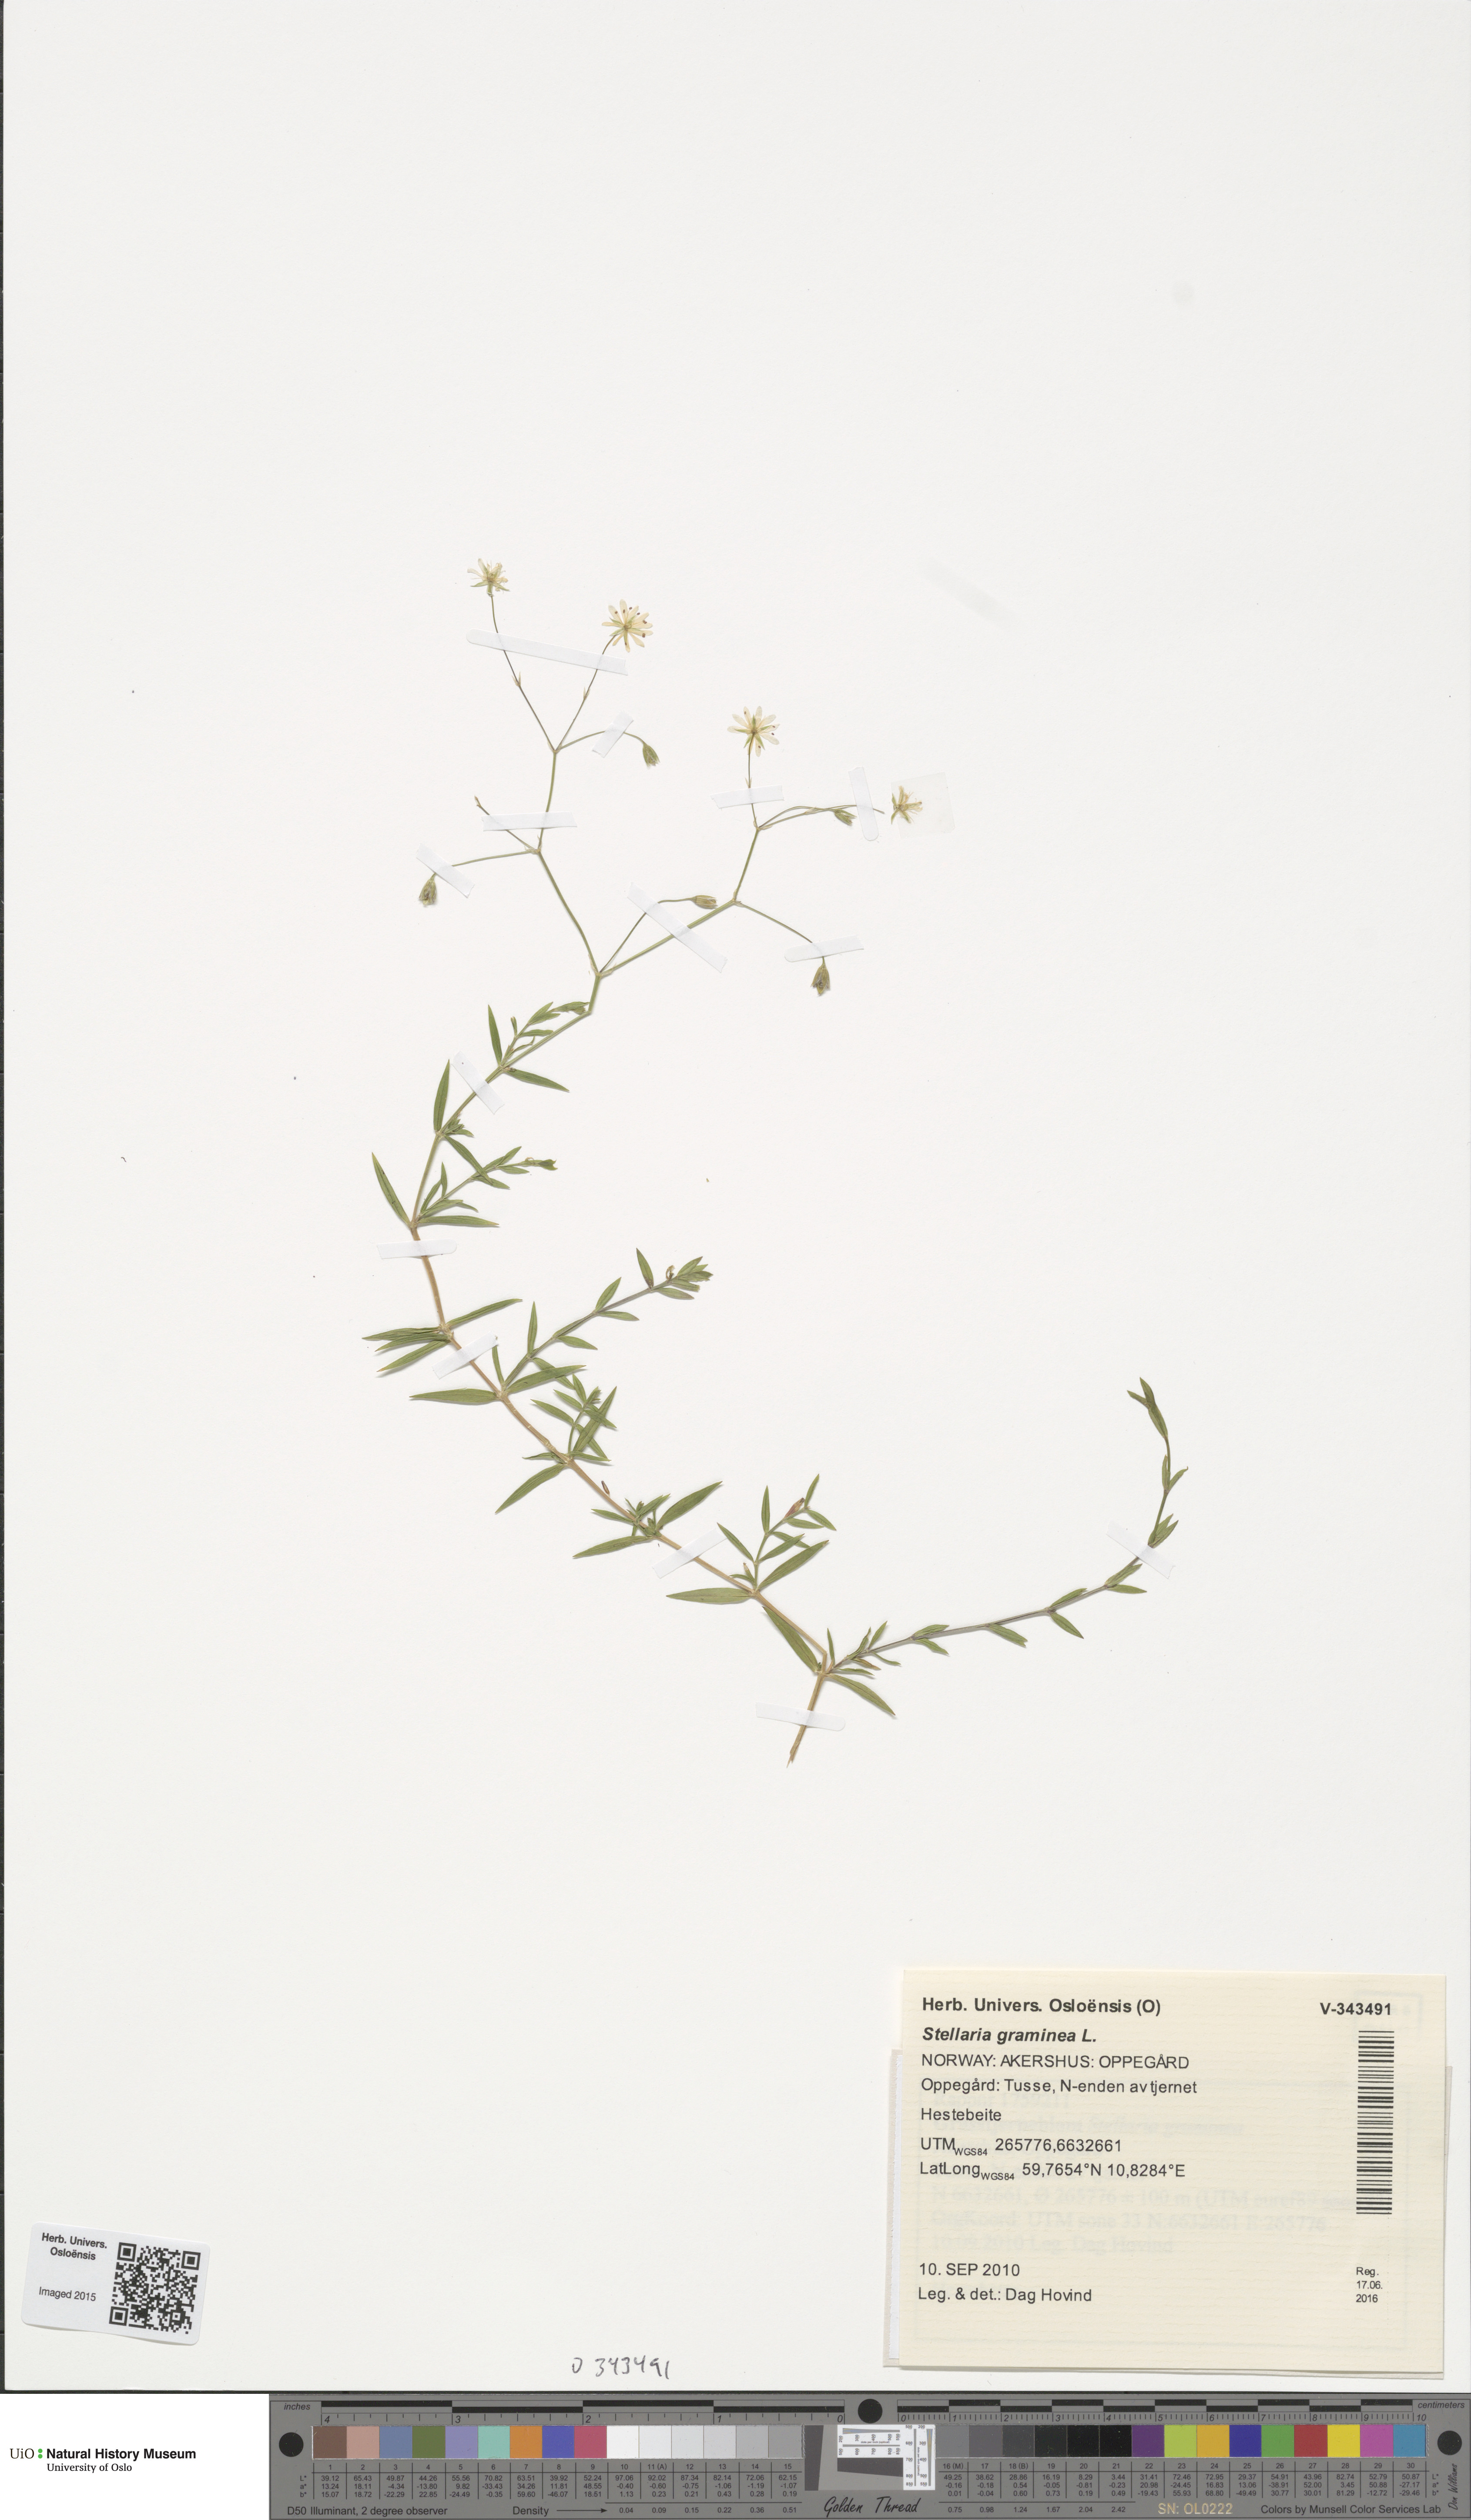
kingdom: Plantae
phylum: Tracheophyta
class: Magnoliopsida
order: Caryophyllales
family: Caryophyllaceae
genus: Stellaria
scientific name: Stellaria graminea
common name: Grass-like starwort
